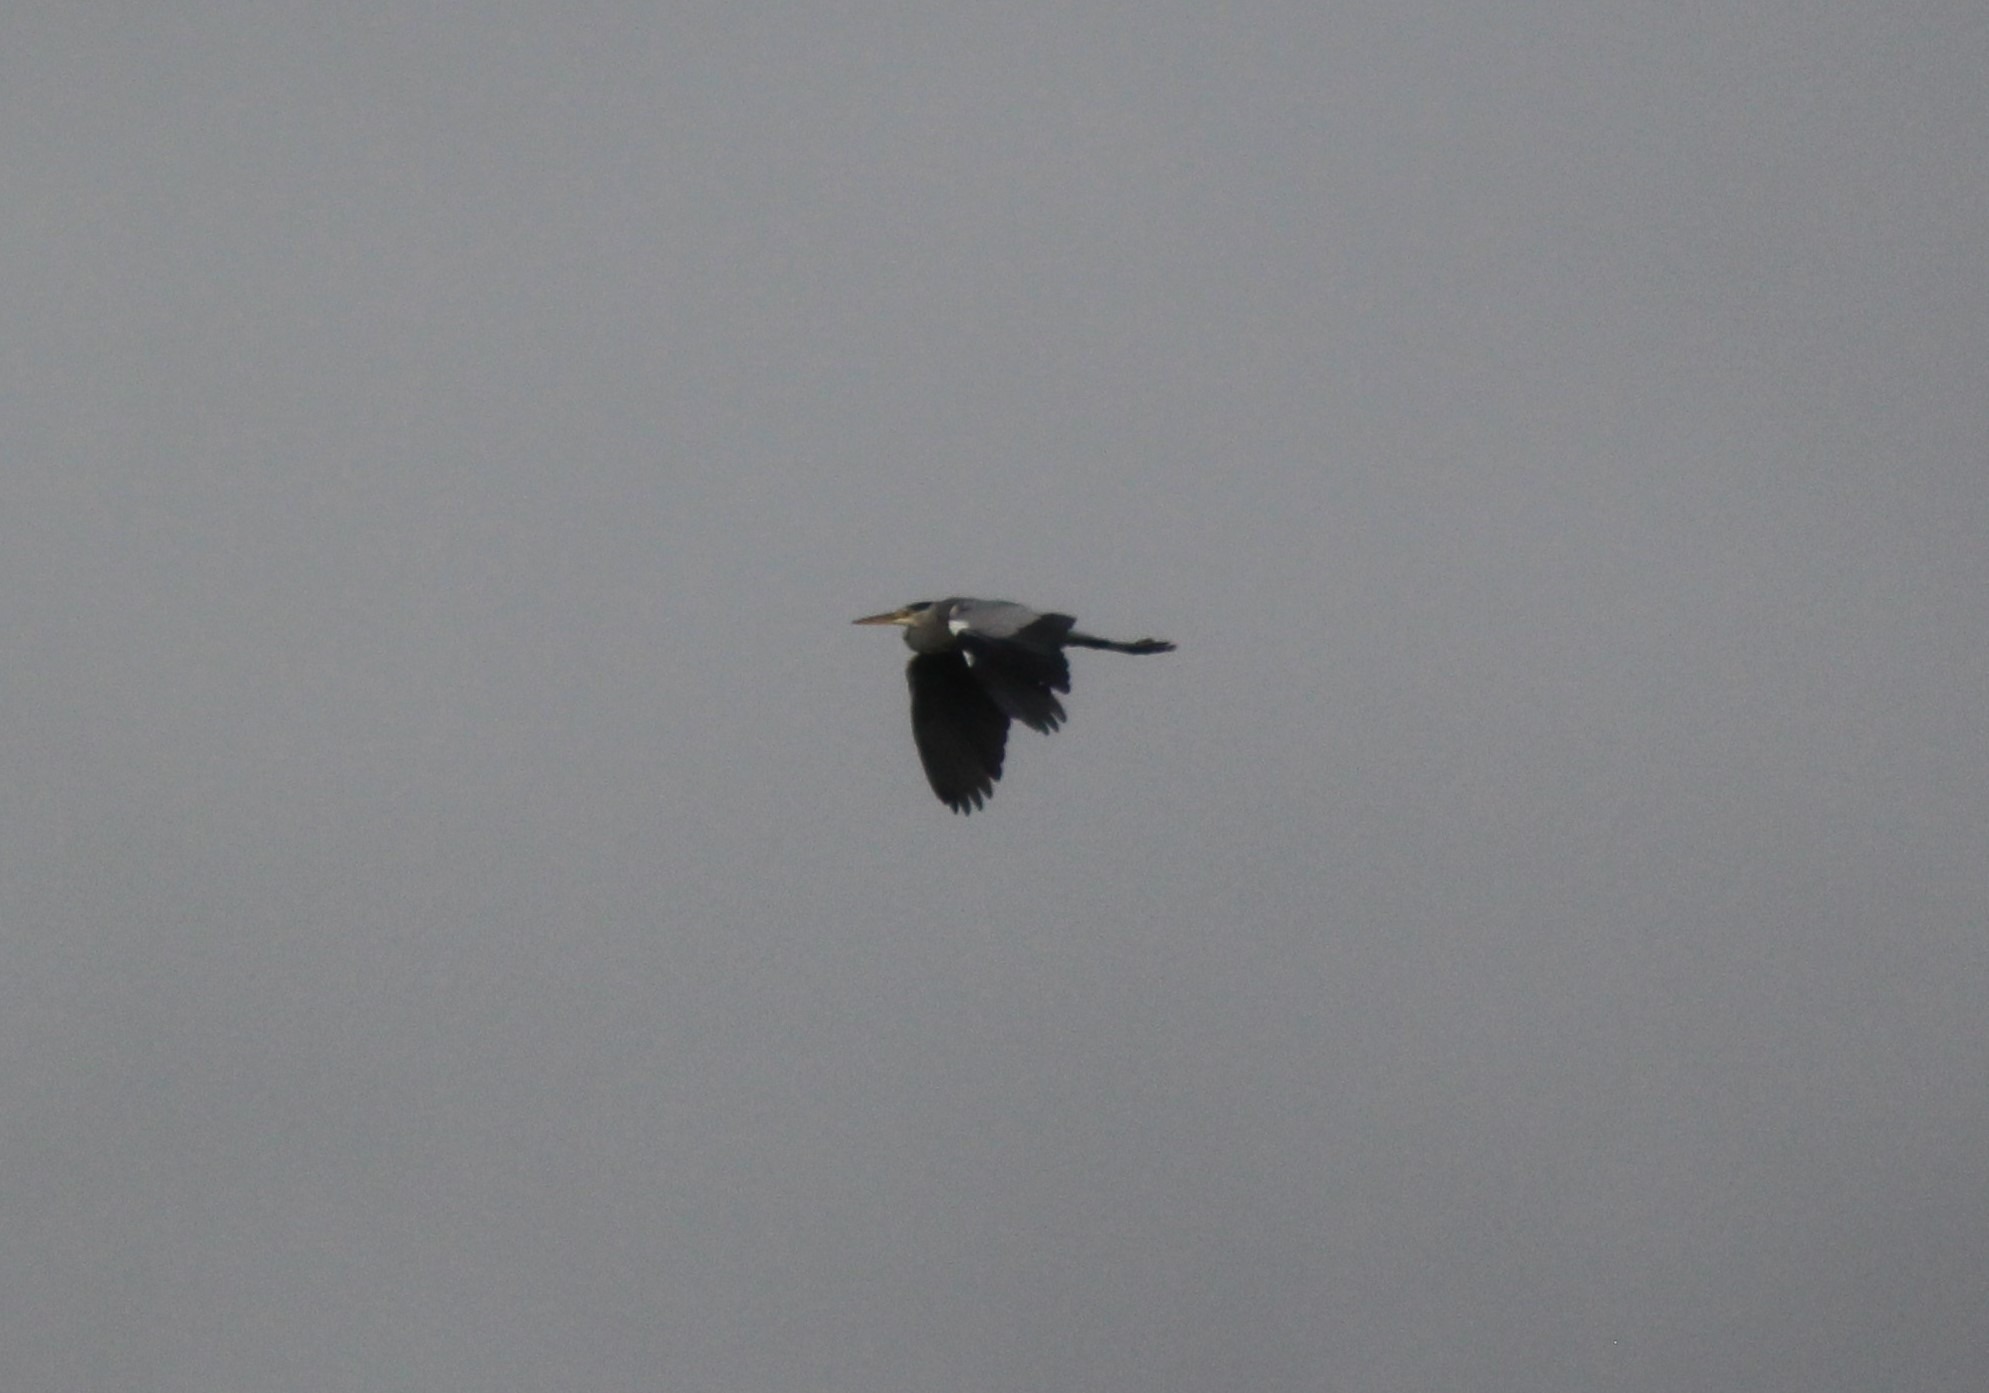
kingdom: Animalia
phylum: Chordata
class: Aves
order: Pelecaniformes
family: Ardeidae
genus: Ardea
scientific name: Ardea cinerea
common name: Fiskehejre
